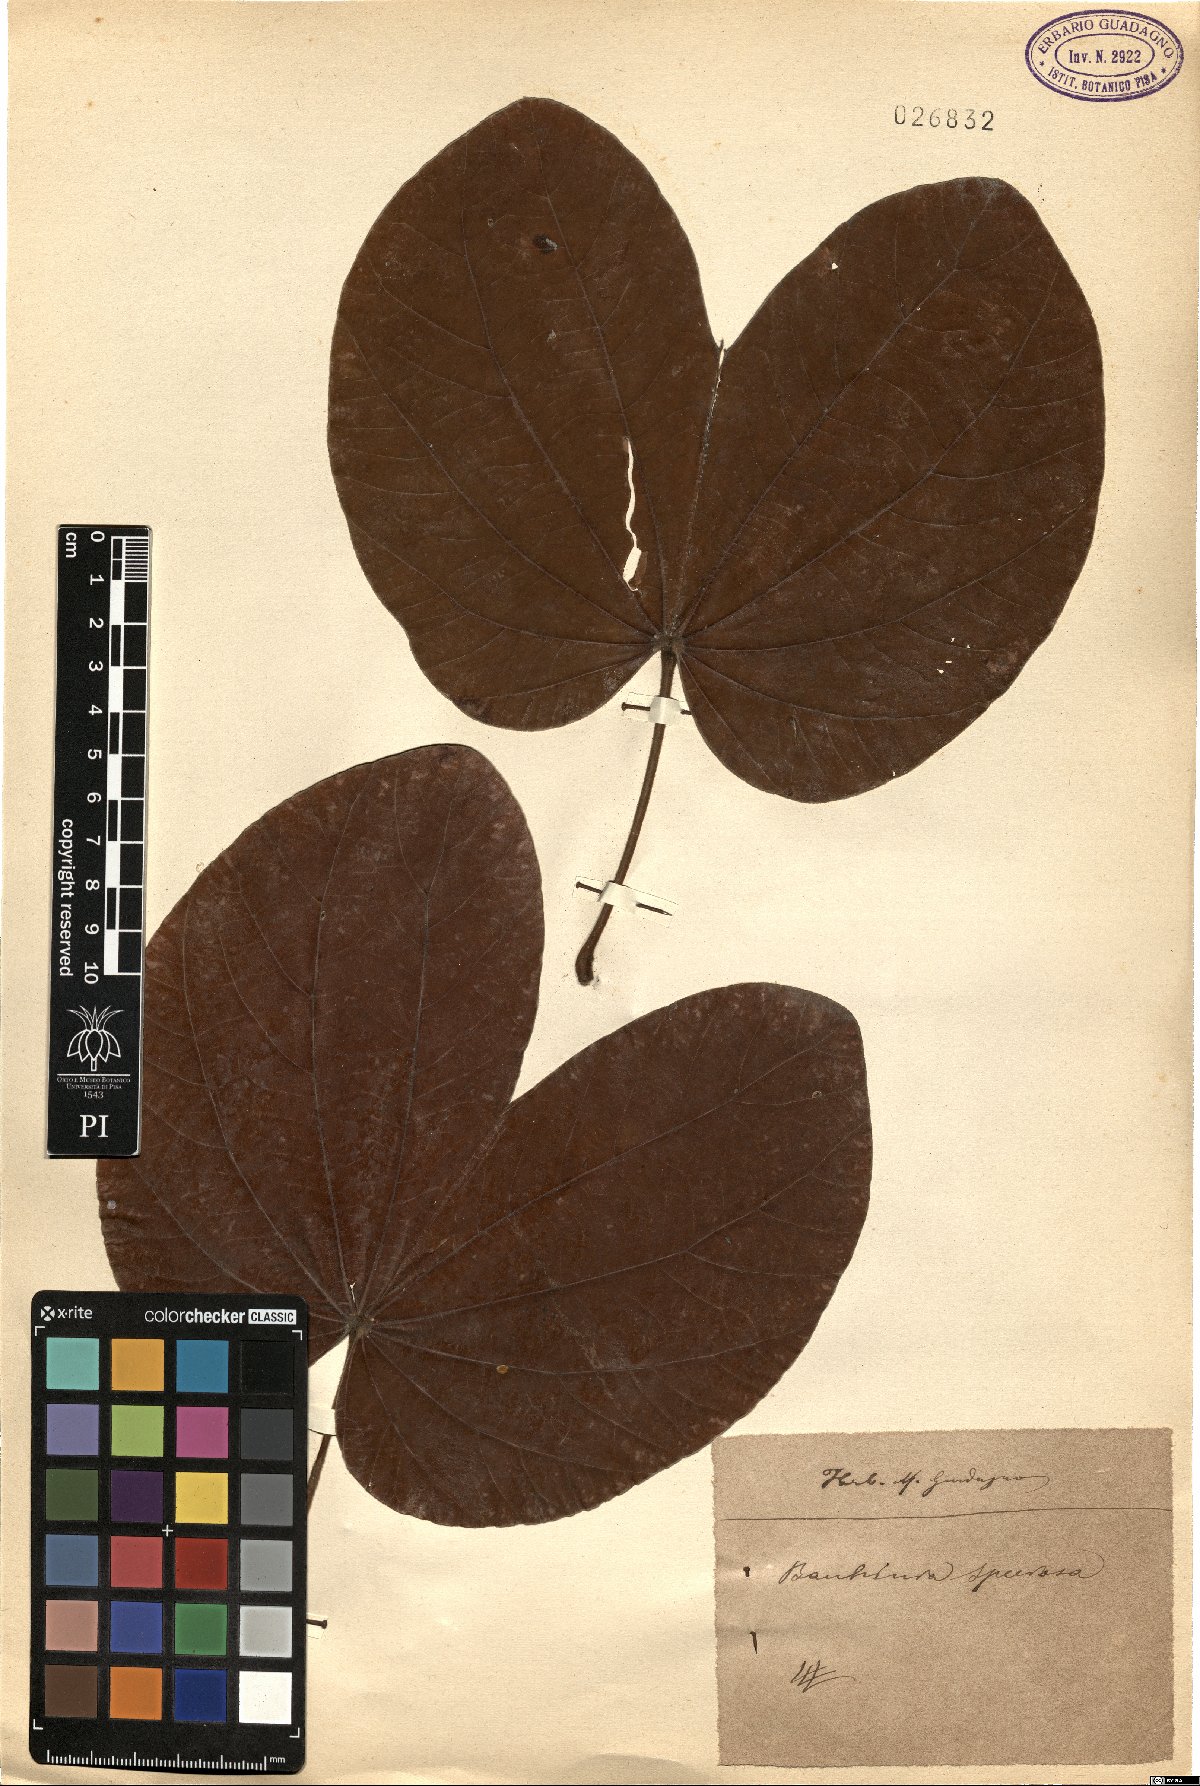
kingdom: Plantae
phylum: Tracheophyta
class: Magnoliopsida
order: Fabales
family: Fabaceae
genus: Schnella
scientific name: Schnella guianensis
